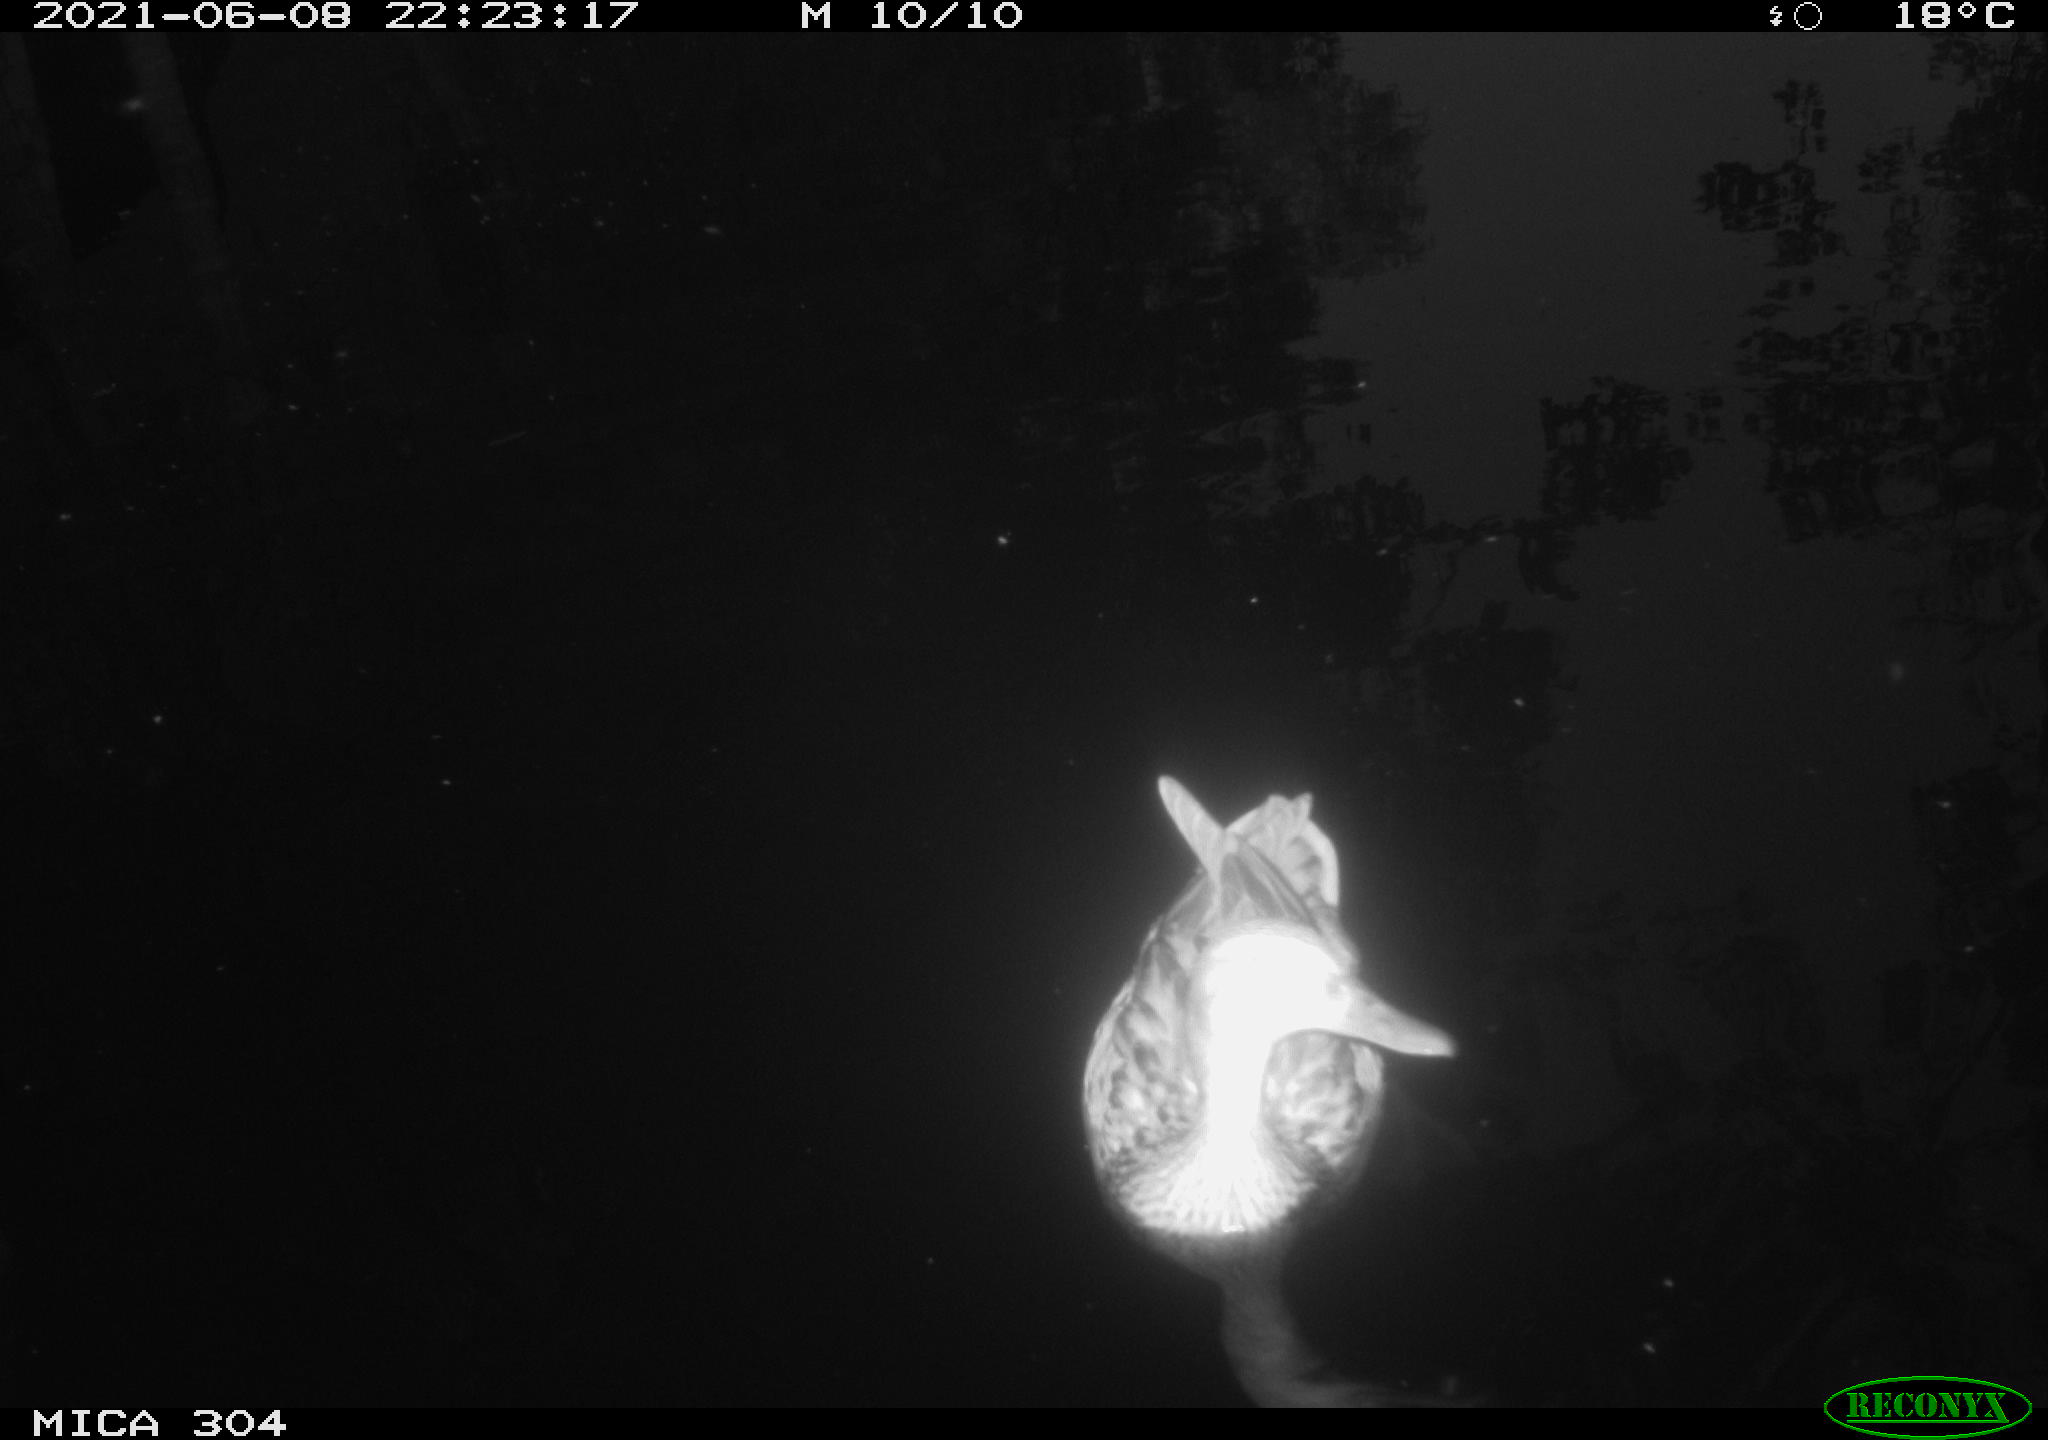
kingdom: Animalia
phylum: Chordata
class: Aves
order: Anseriformes
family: Anatidae
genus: Mareca
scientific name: Mareca strepera
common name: Gadwall
